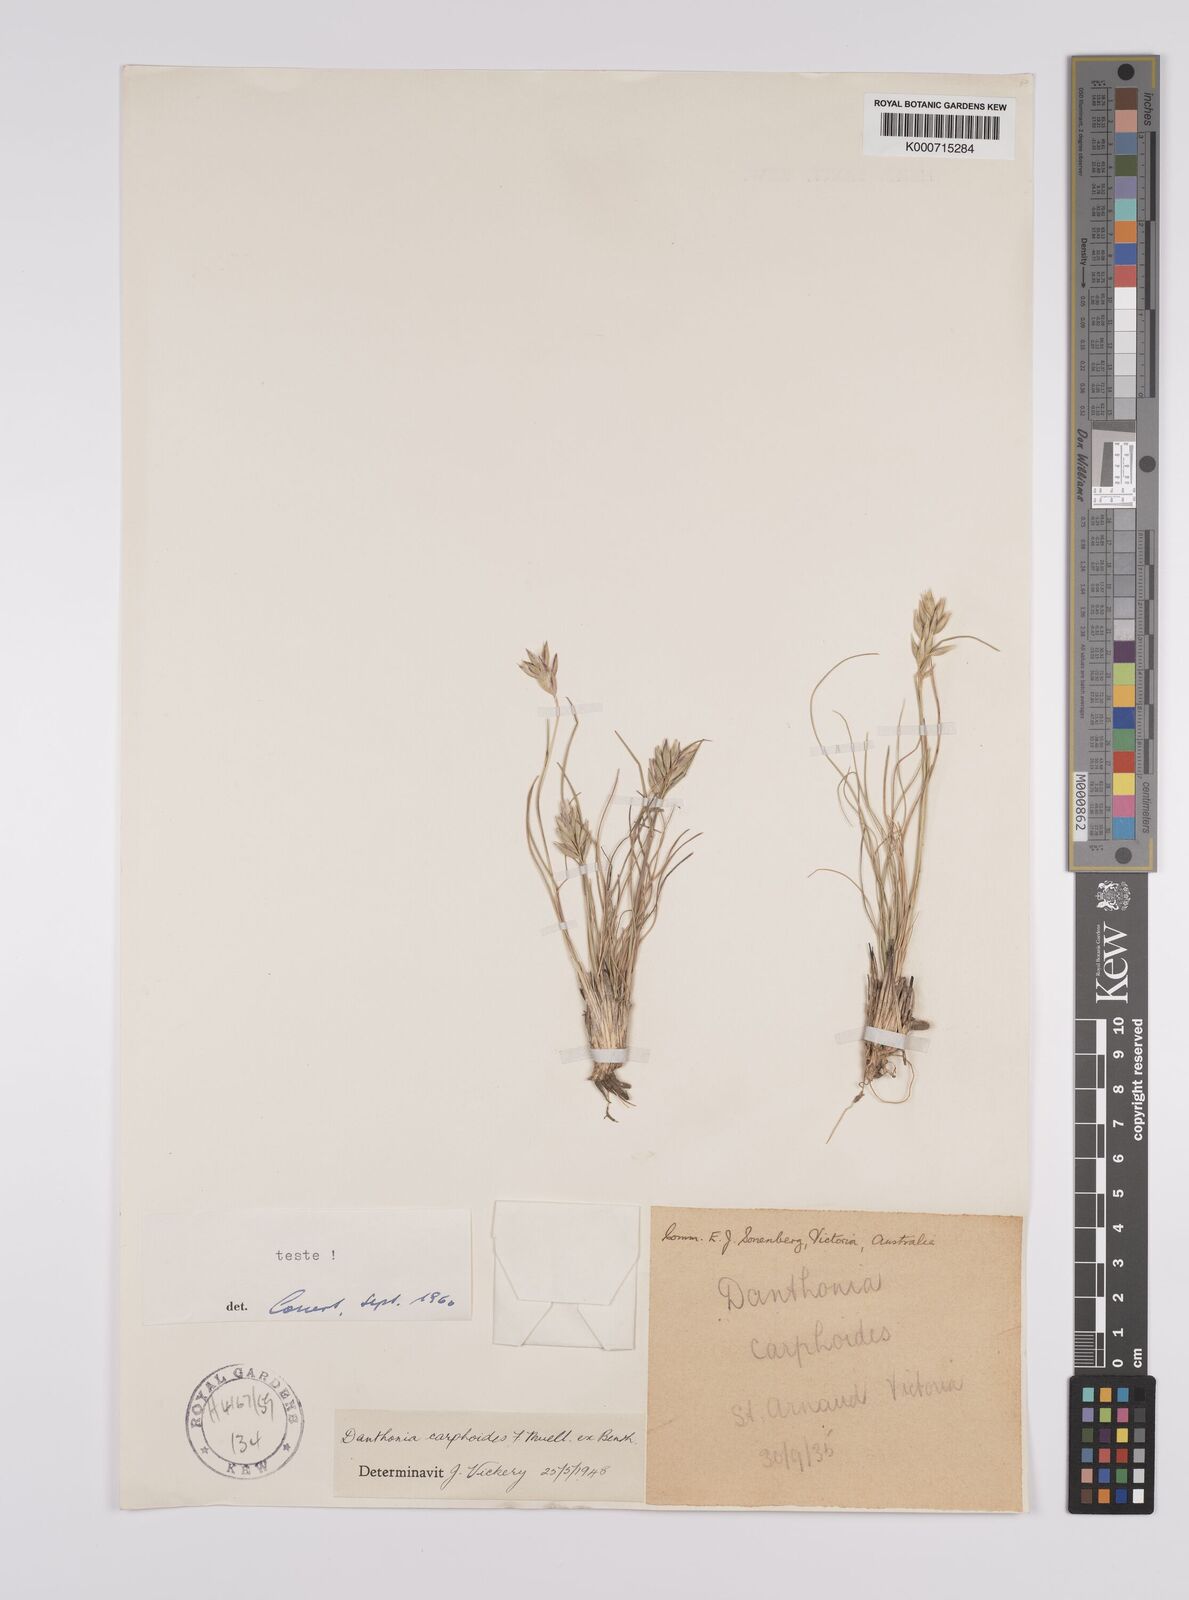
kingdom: Plantae
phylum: Tracheophyta
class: Liliopsida
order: Poales
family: Poaceae
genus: Rytidosperma
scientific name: Rytidosperma carphoides
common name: Short wallaby grass
